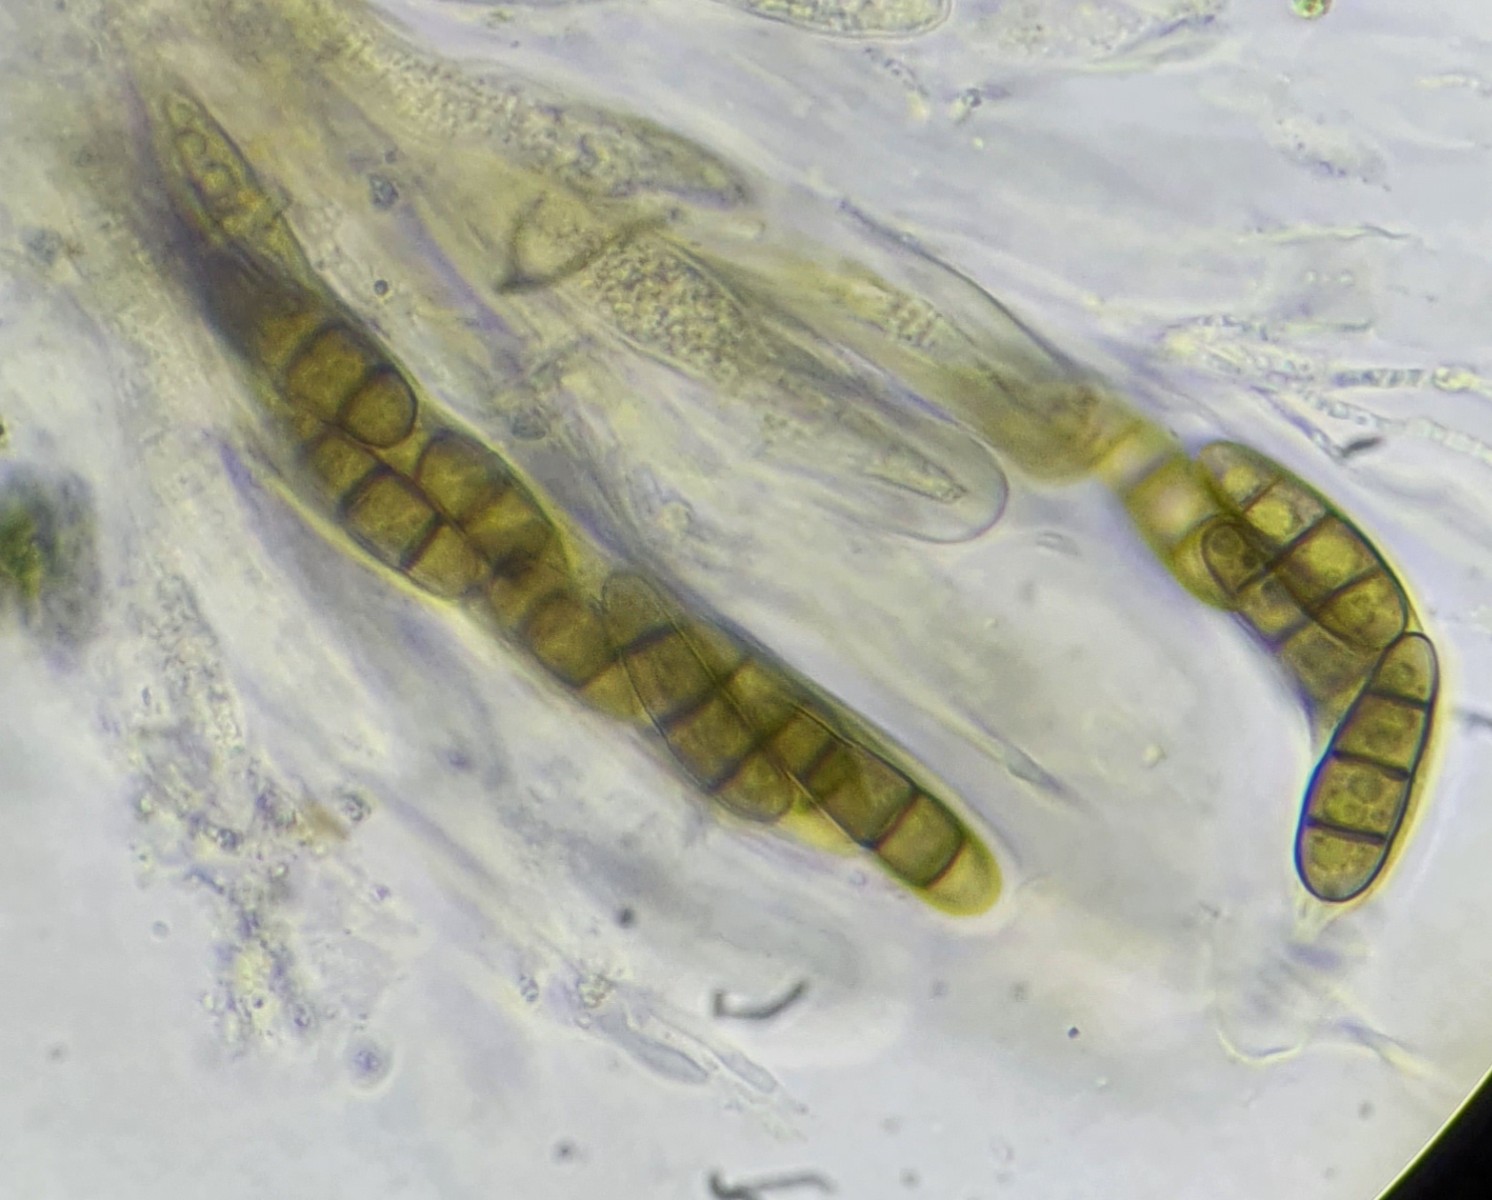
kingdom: Fungi
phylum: Ascomycota
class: Dothideomycetes
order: Hysteriales
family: Hysteriaceae
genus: Hysterium
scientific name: Hysterium acuminatum
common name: almindelig kulmund
